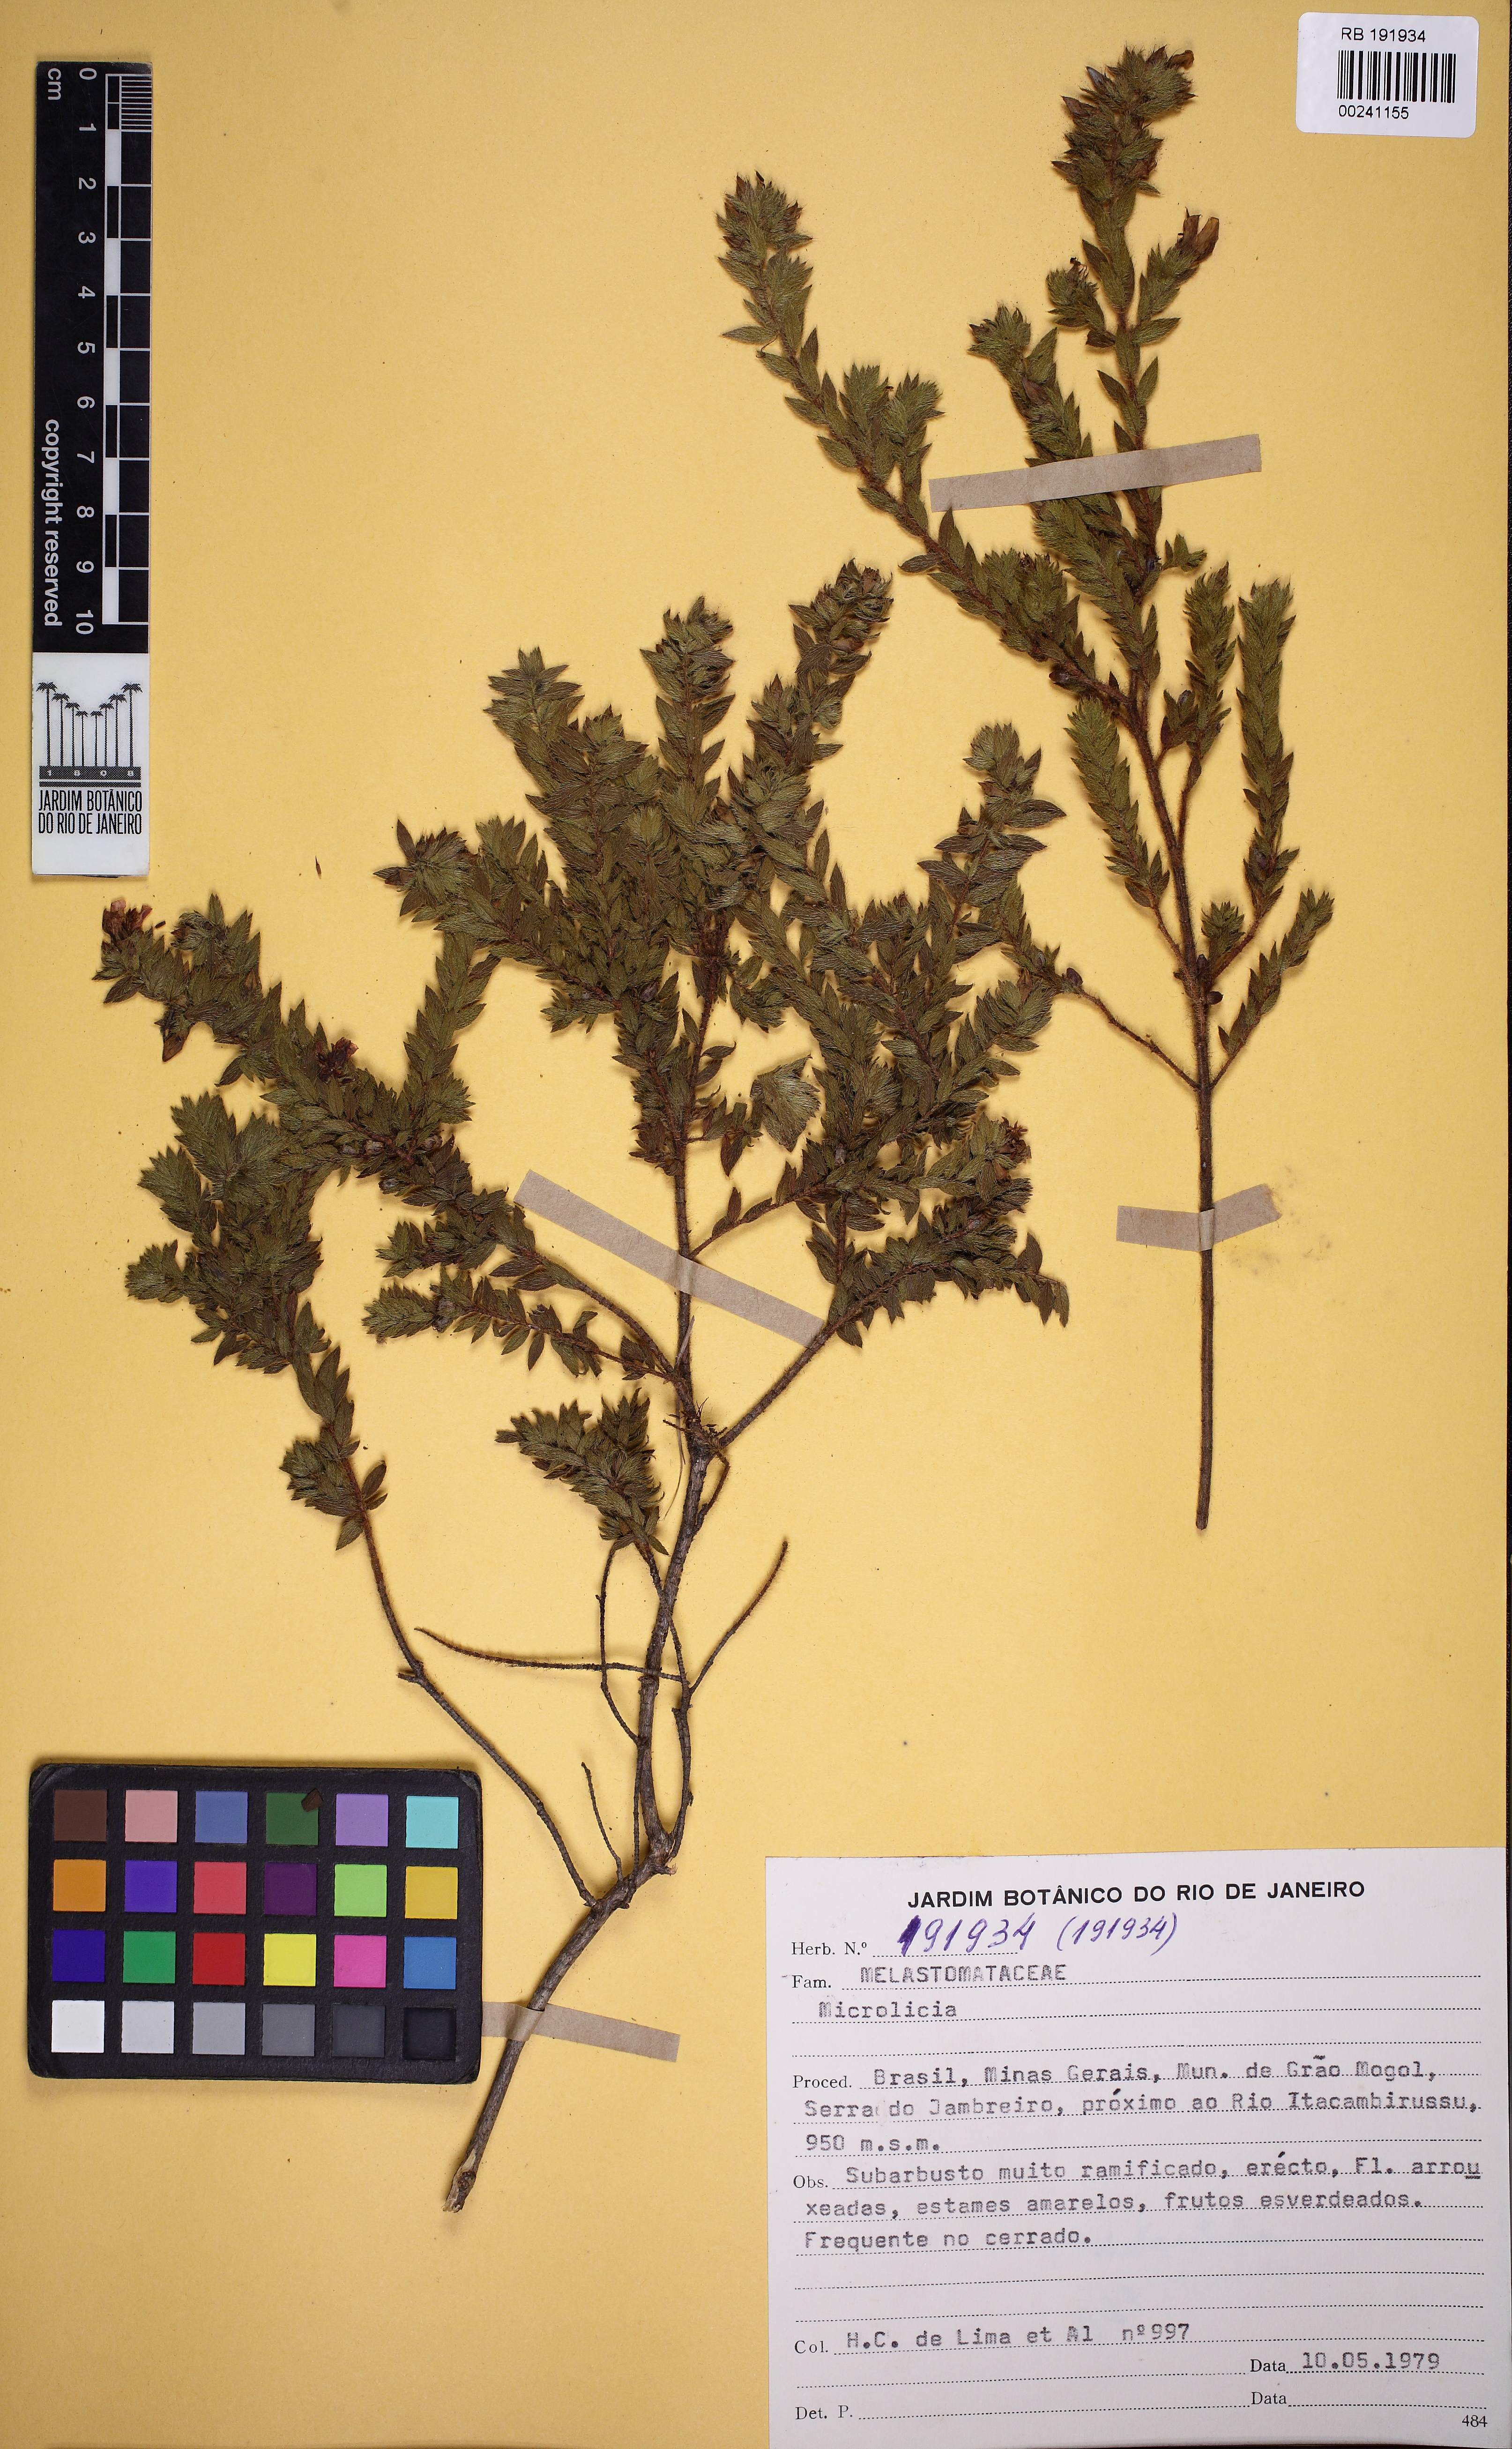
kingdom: Plantae
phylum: Tracheophyta
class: Magnoliopsida
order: Myrtales
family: Melastomataceae
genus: Microlicia
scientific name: Microlicia maximowicziana
